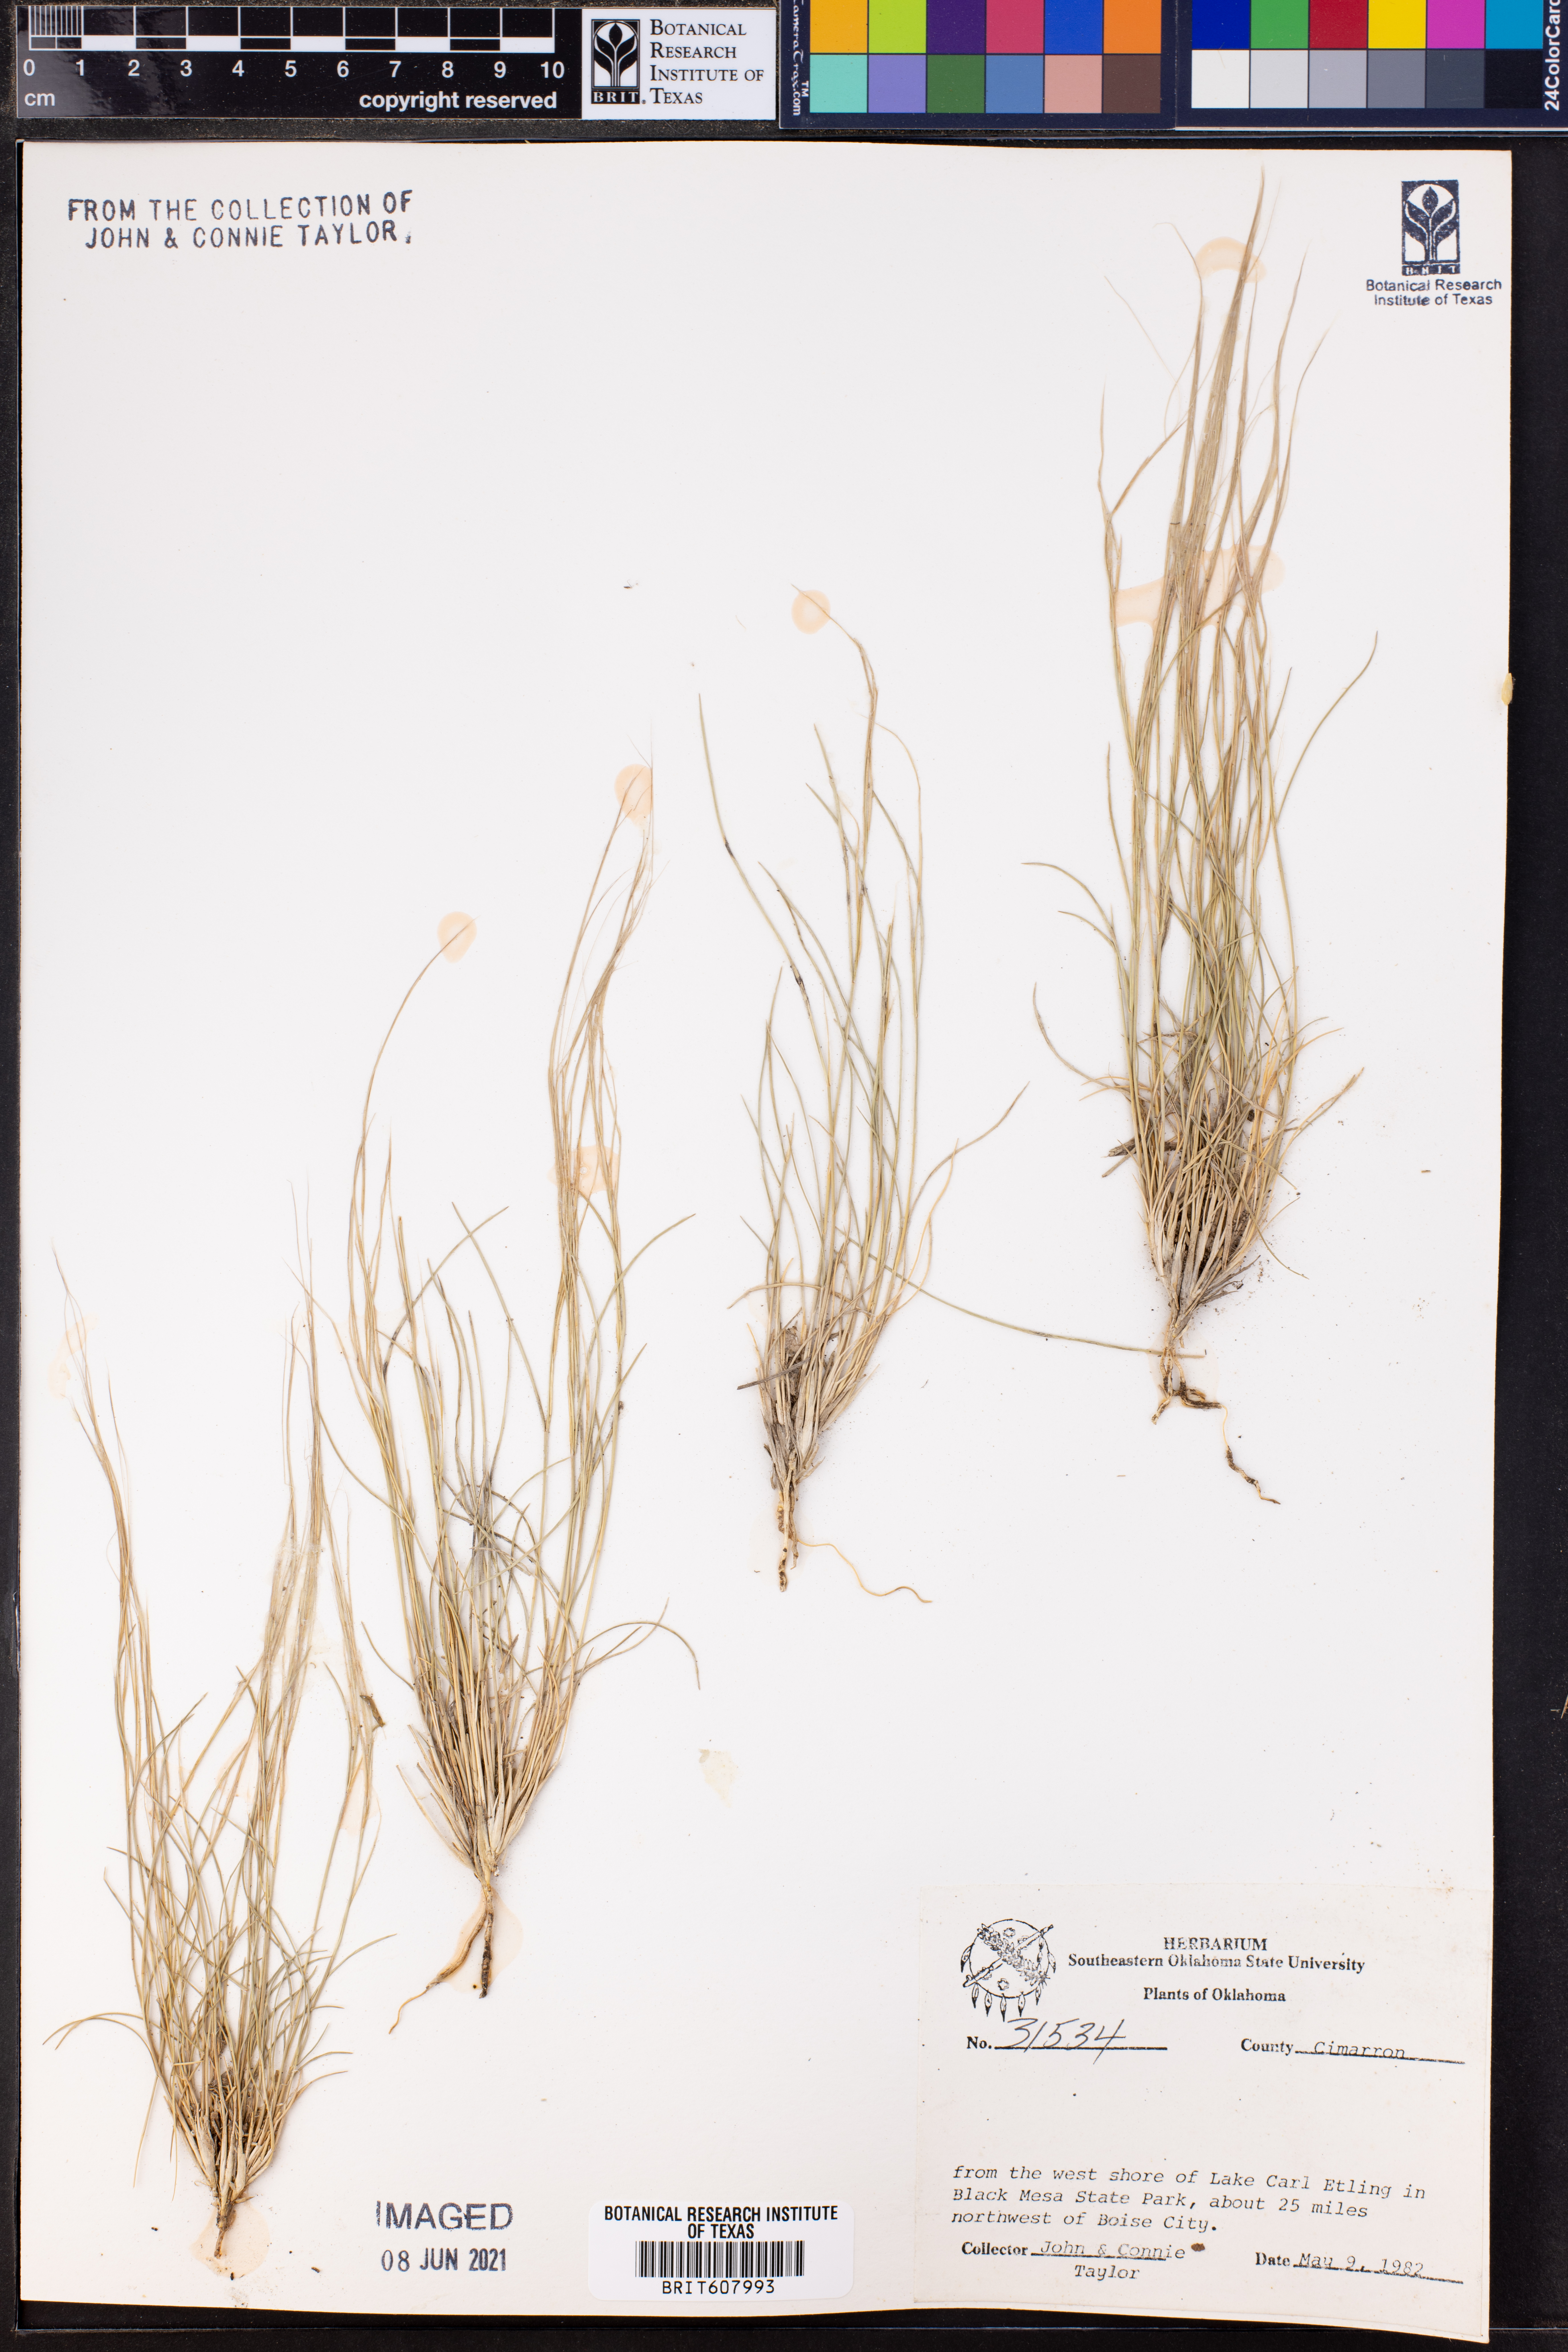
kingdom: Plantae
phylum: Tracheophyta
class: Liliopsida
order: Poales
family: Poaceae
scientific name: Poaceae
